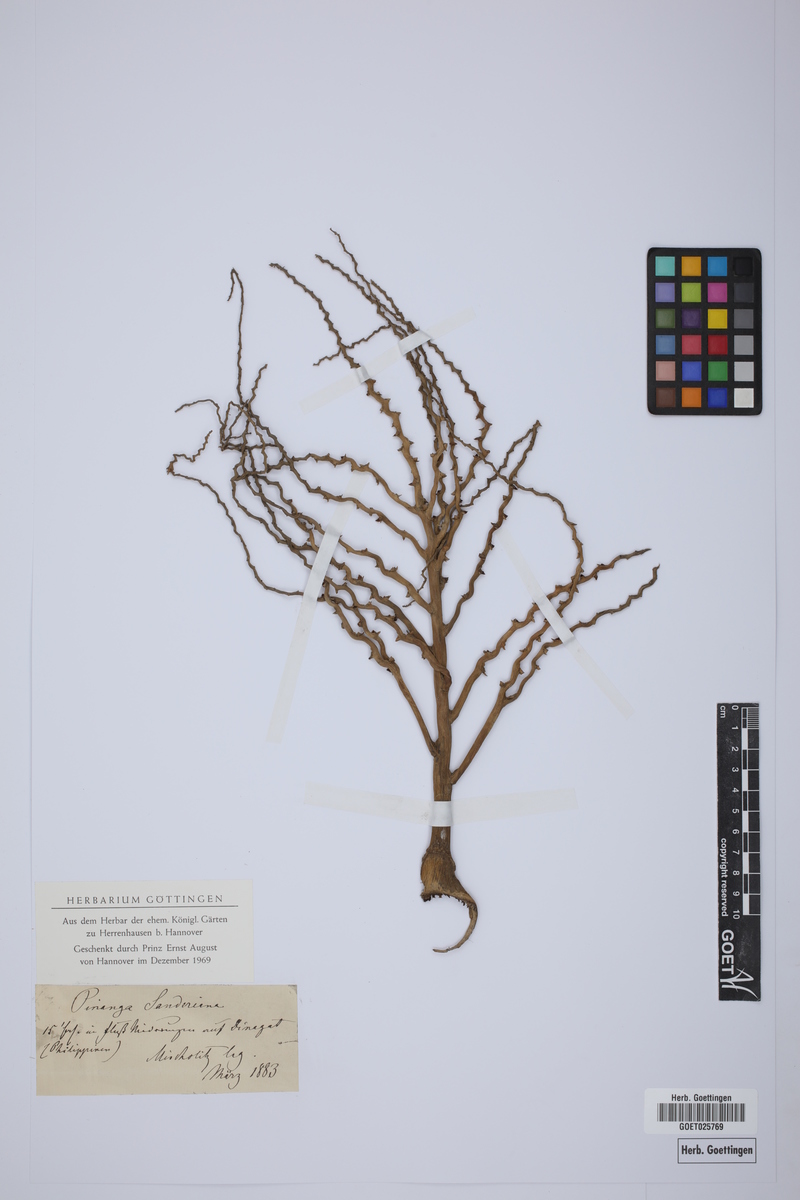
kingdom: Plantae
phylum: Tracheophyta
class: Liliopsida
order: Arecales
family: Arecaceae
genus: Pinanga
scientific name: Pinanga sanderiana
